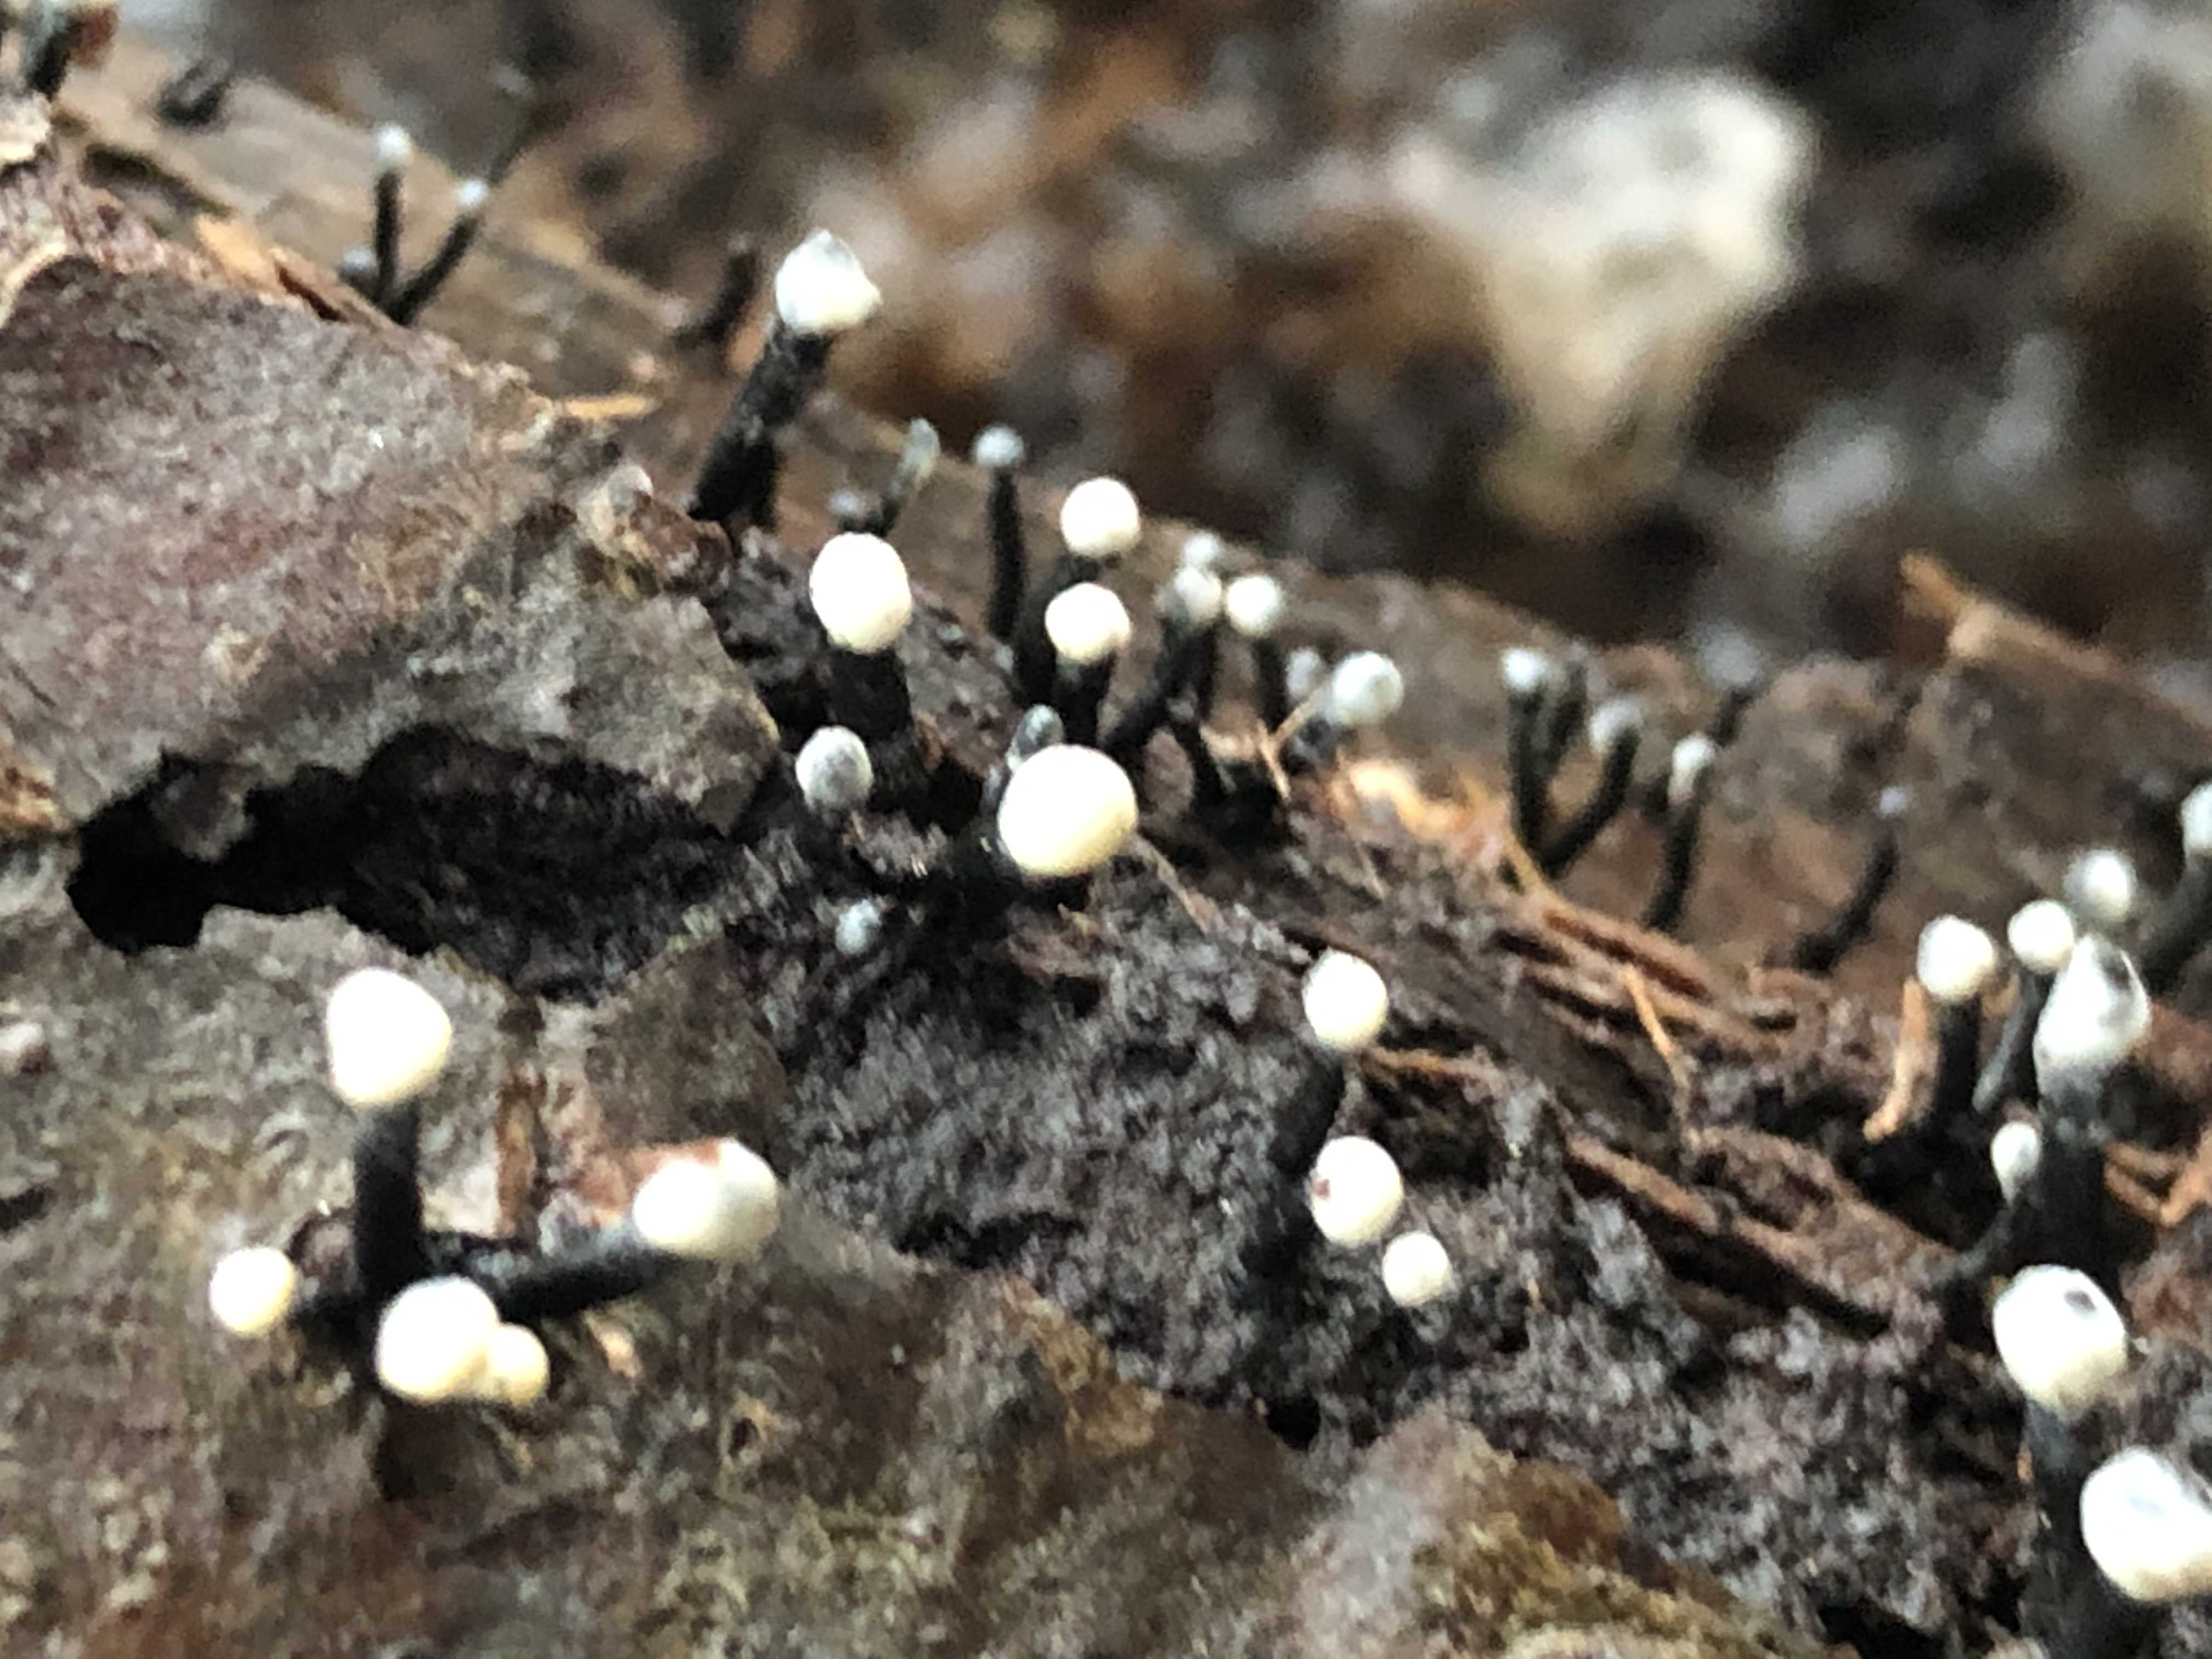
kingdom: Fungi
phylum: Ascomycota
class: Leotiomycetes
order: Helotiales
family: Bulgariaceae
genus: Holwaya
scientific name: Holwaya mucida
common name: lindeskive
